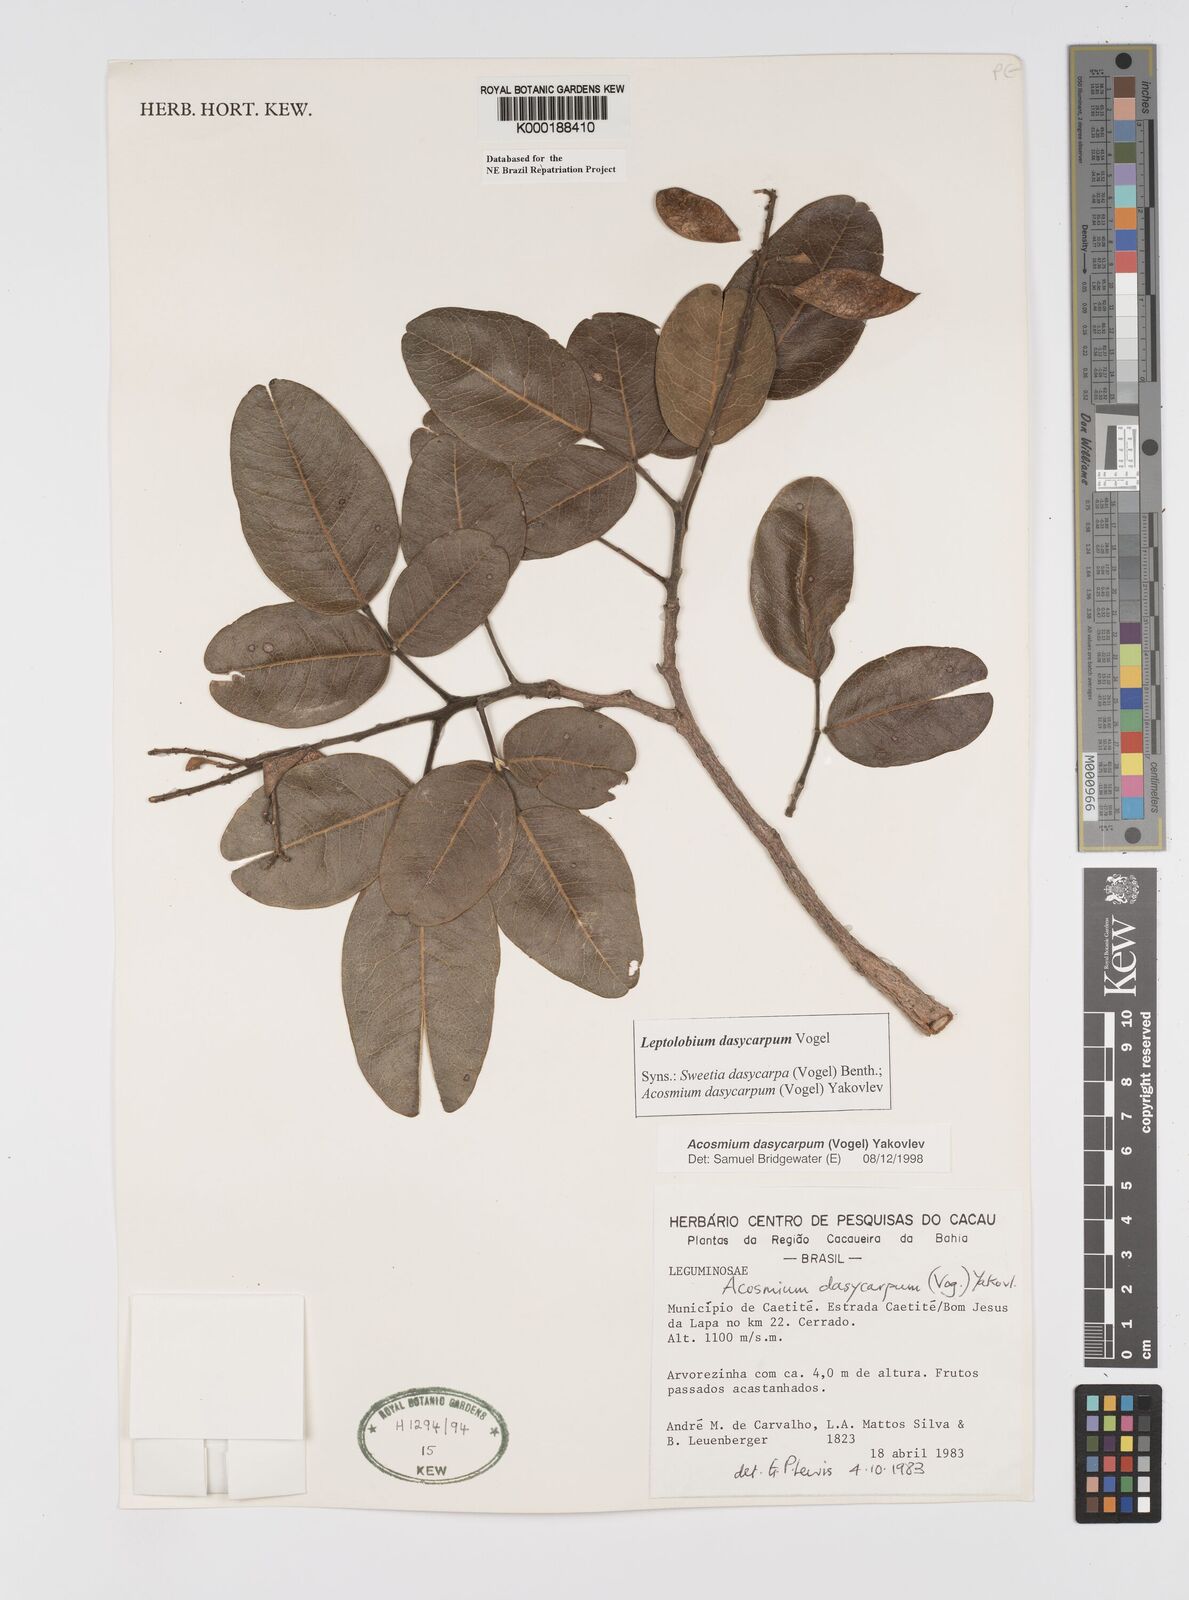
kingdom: Plantae
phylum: Tracheophyta
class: Magnoliopsida
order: Fabales
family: Fabaceae
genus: Leptolobium
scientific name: Leptolobium dasycarpum
